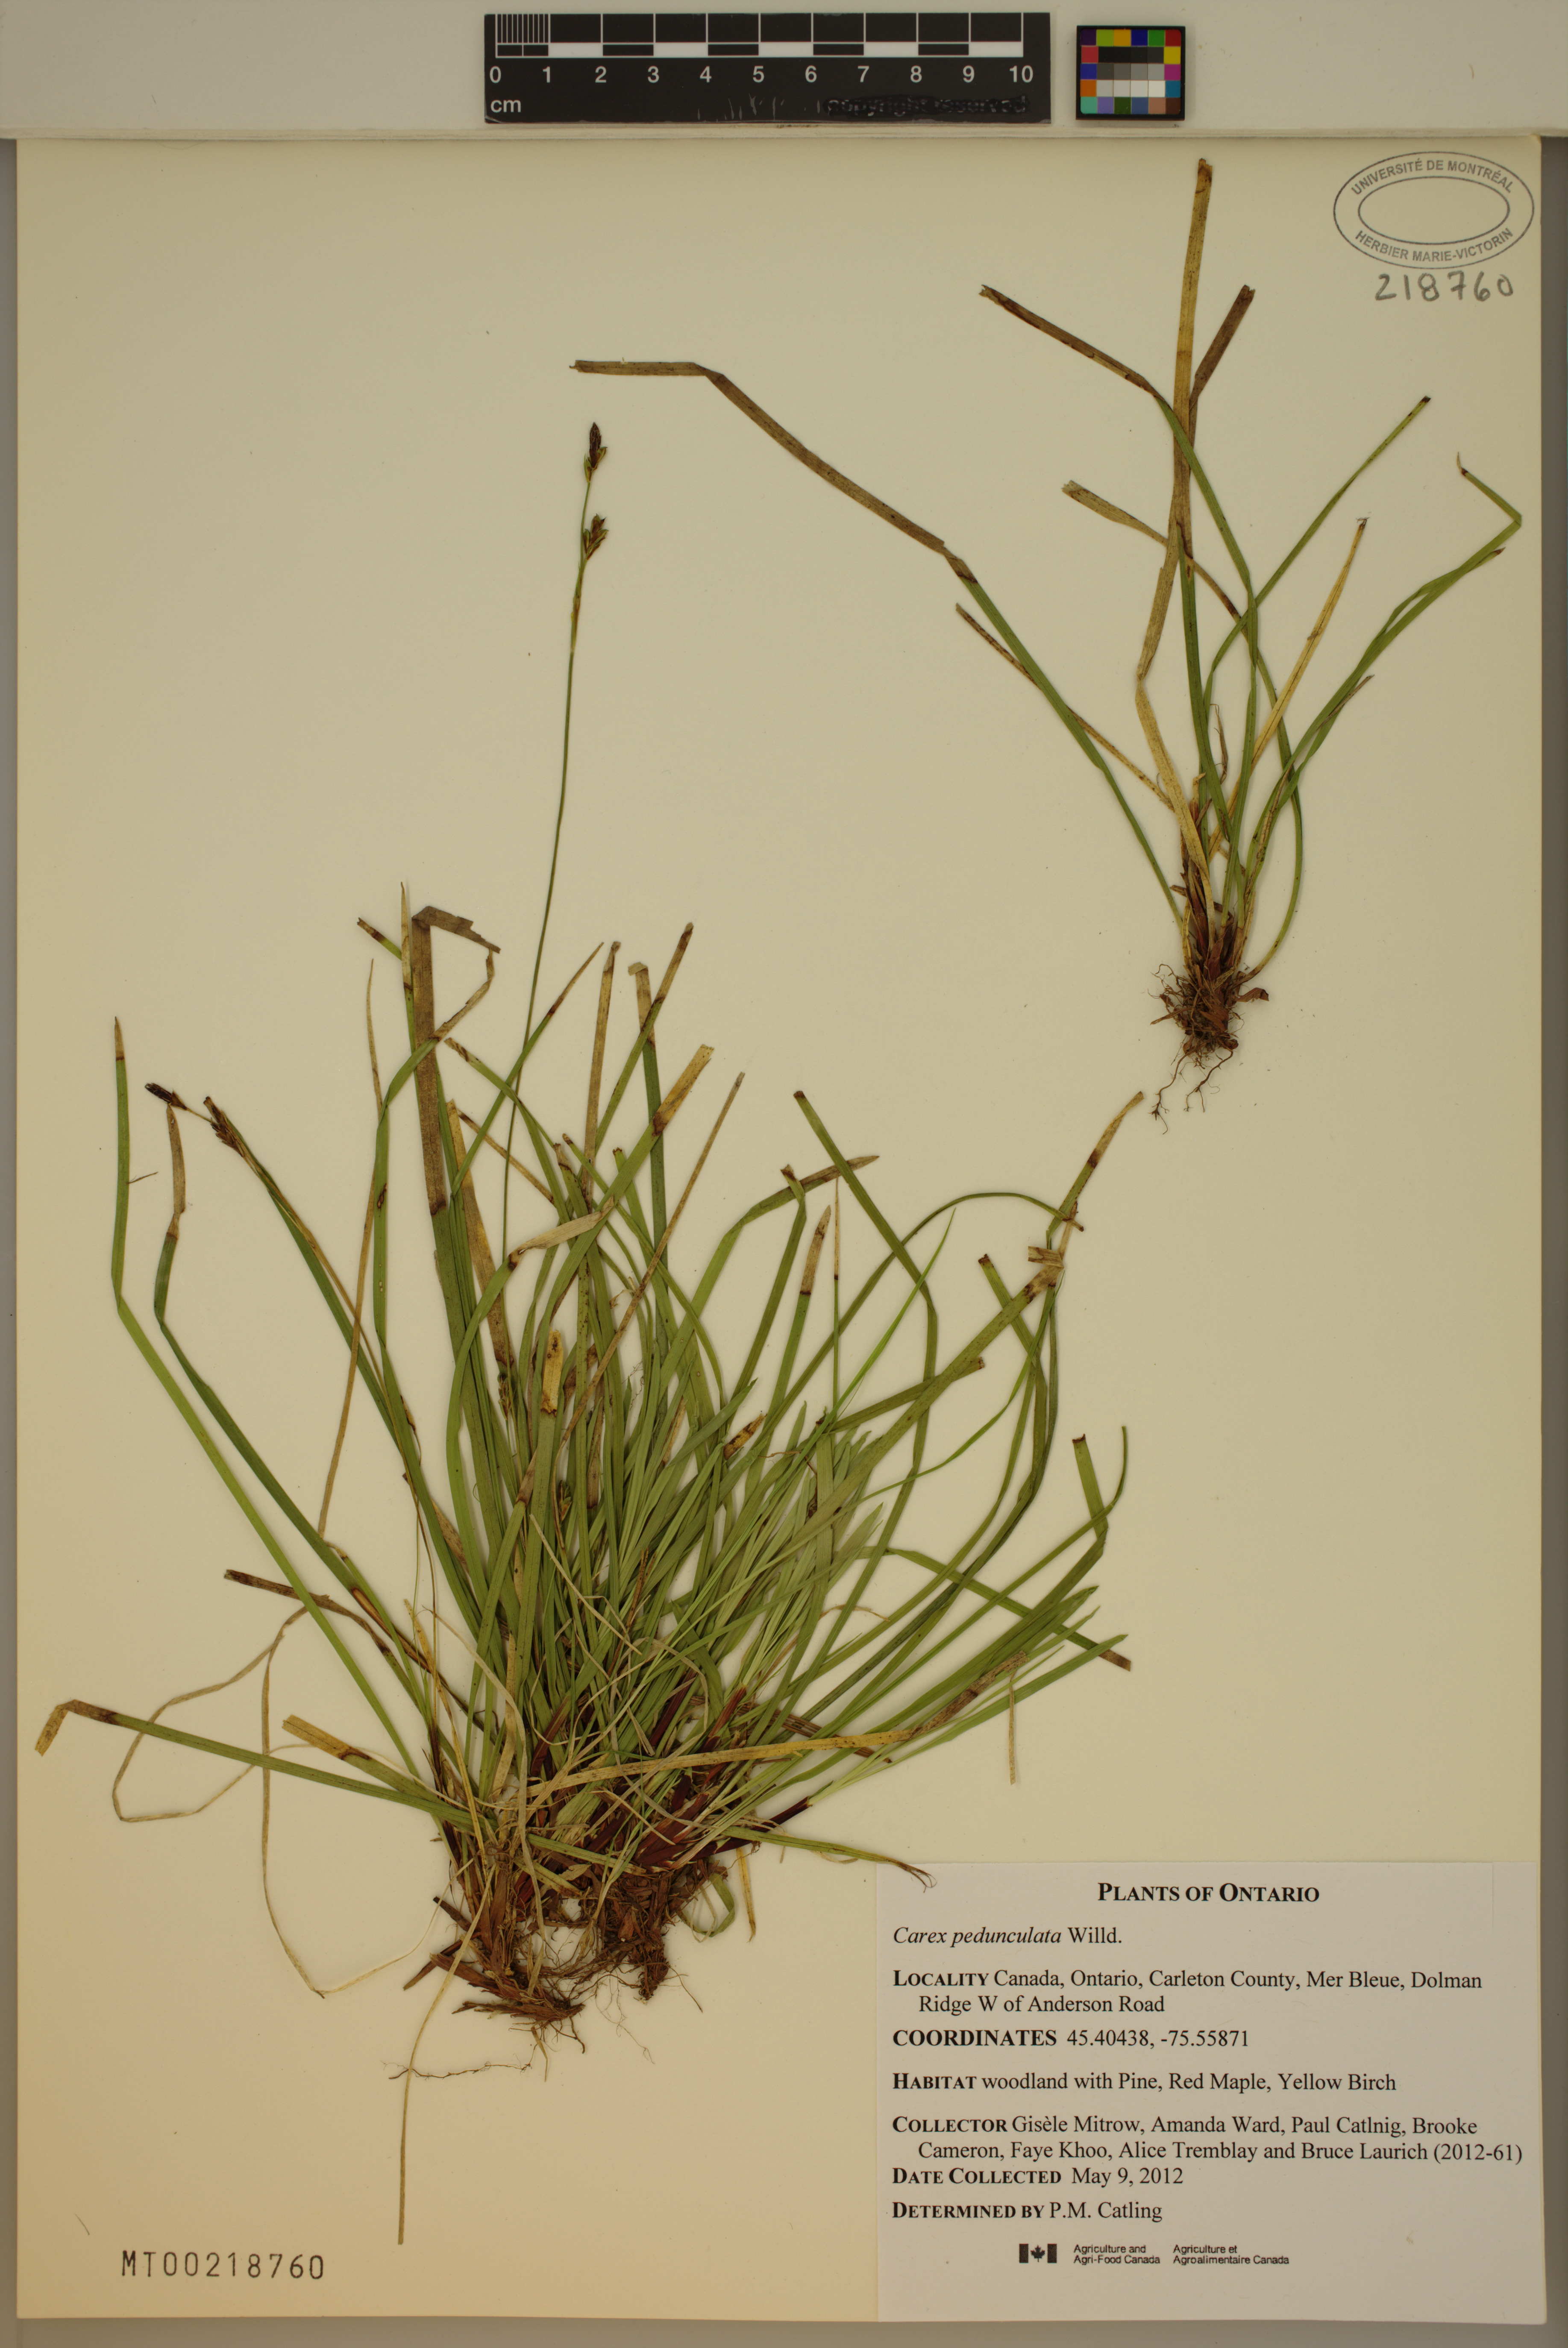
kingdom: Plantae
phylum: Tracheophyta
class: Liliopsida
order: Poales
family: Cyperaceae
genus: Carex
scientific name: Carex pedunculata
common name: Pedunculate sedge
